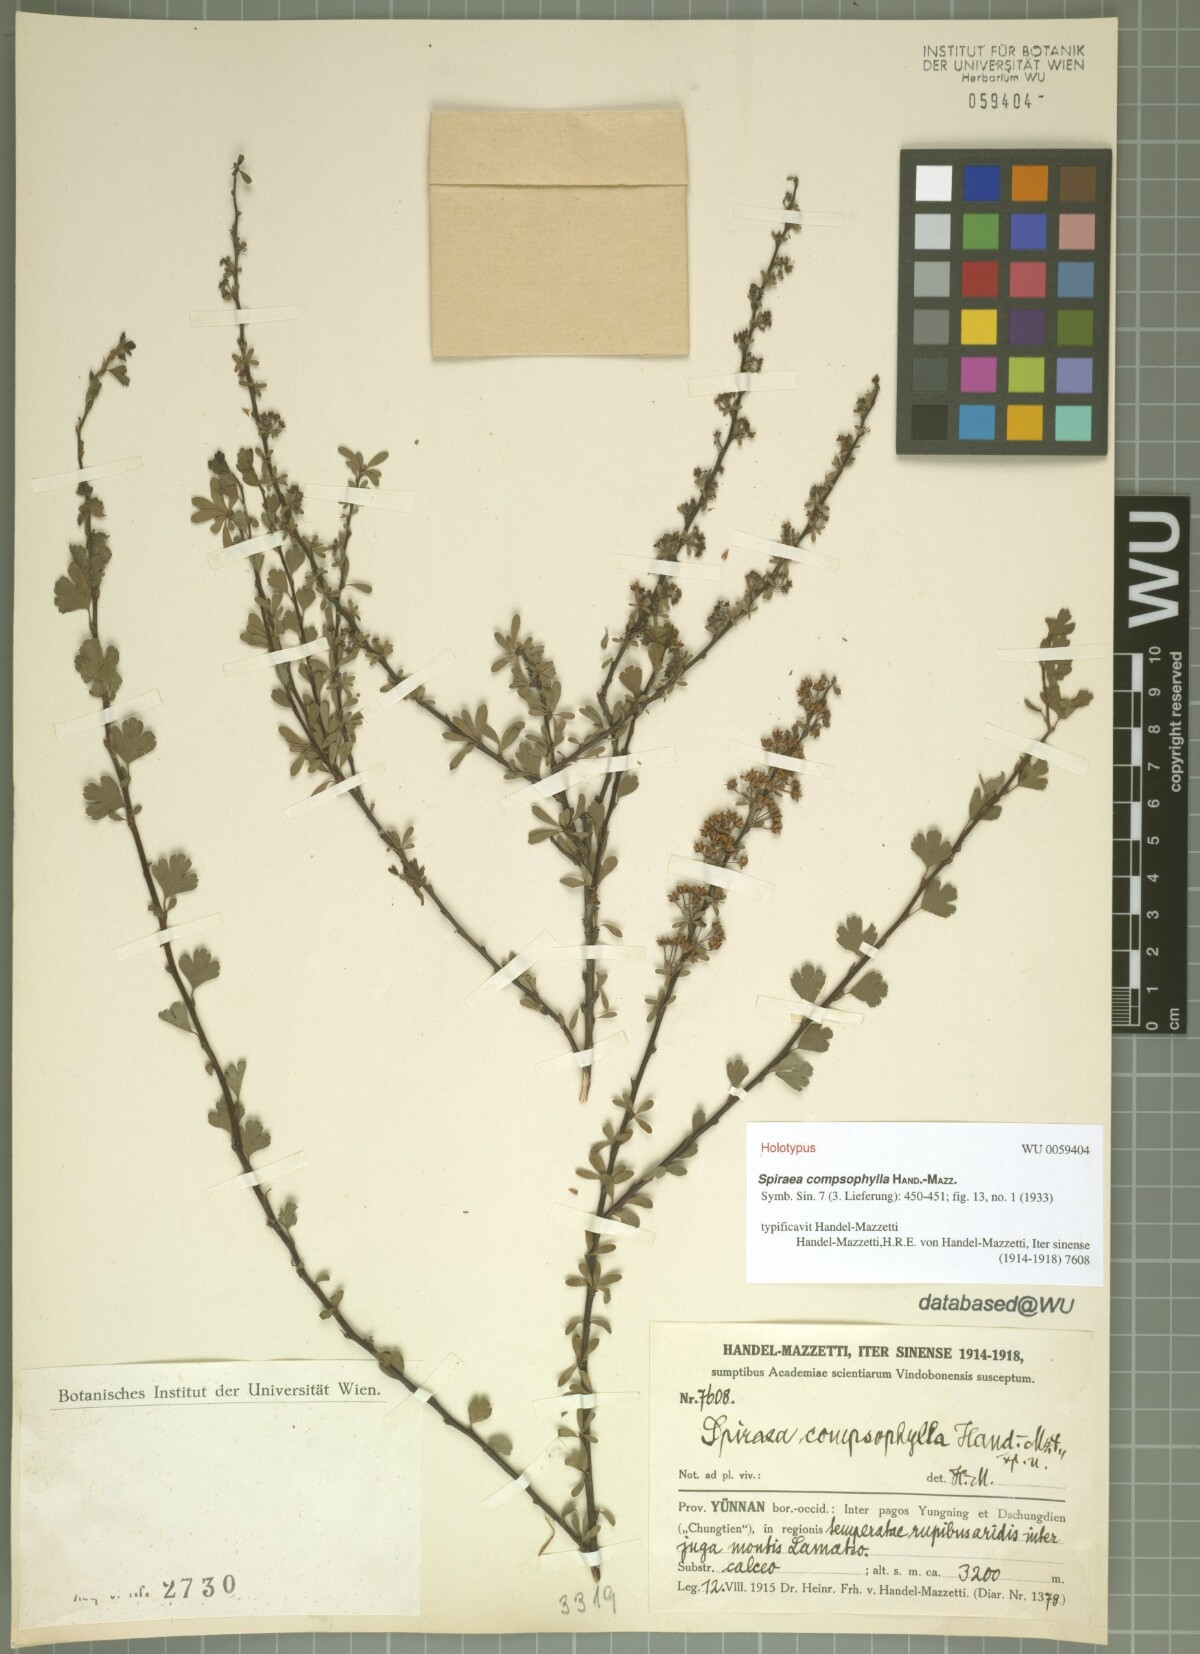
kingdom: Plantae
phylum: Tracheophyta
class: Magnoliopsida
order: Rosales
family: Rosaceae
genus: Spiraea
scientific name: Spiraea compsophylla
